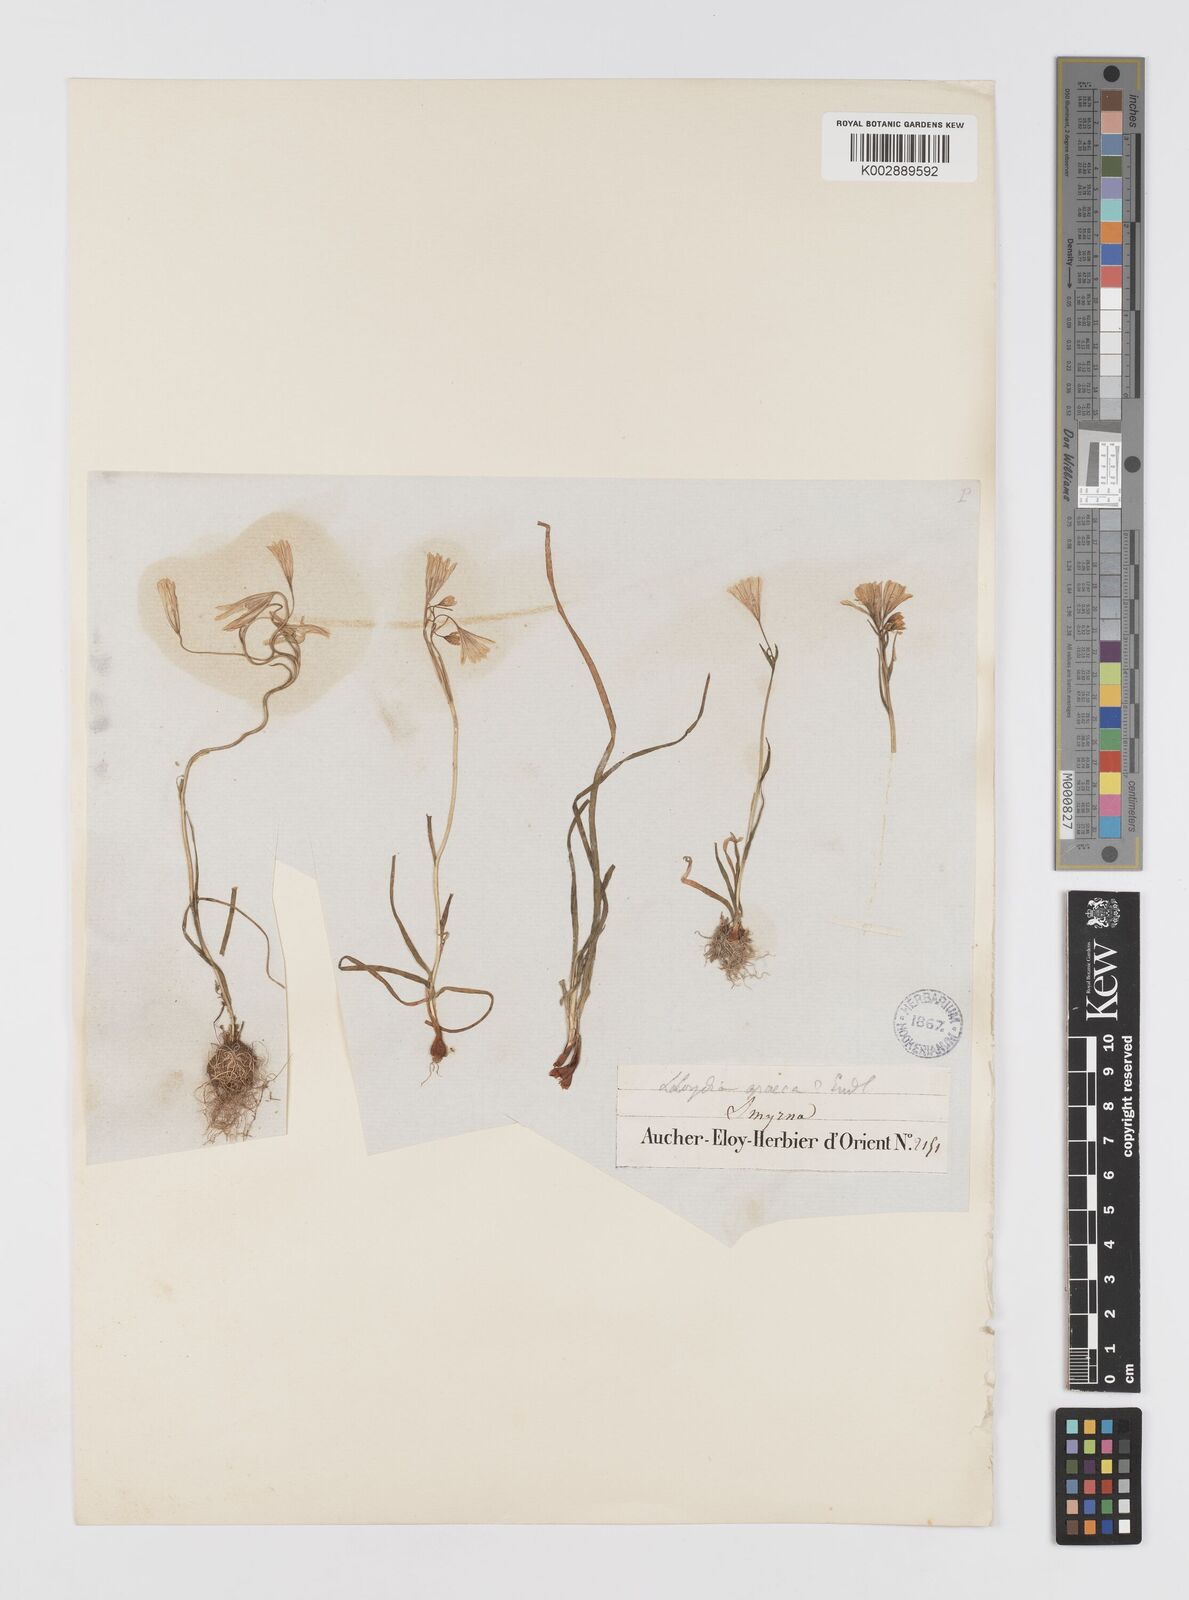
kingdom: Plantae
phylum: Tracheophyta
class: Liliopsida
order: Liliales
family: Liliaceae
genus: Gagea
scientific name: Gagea graeca
